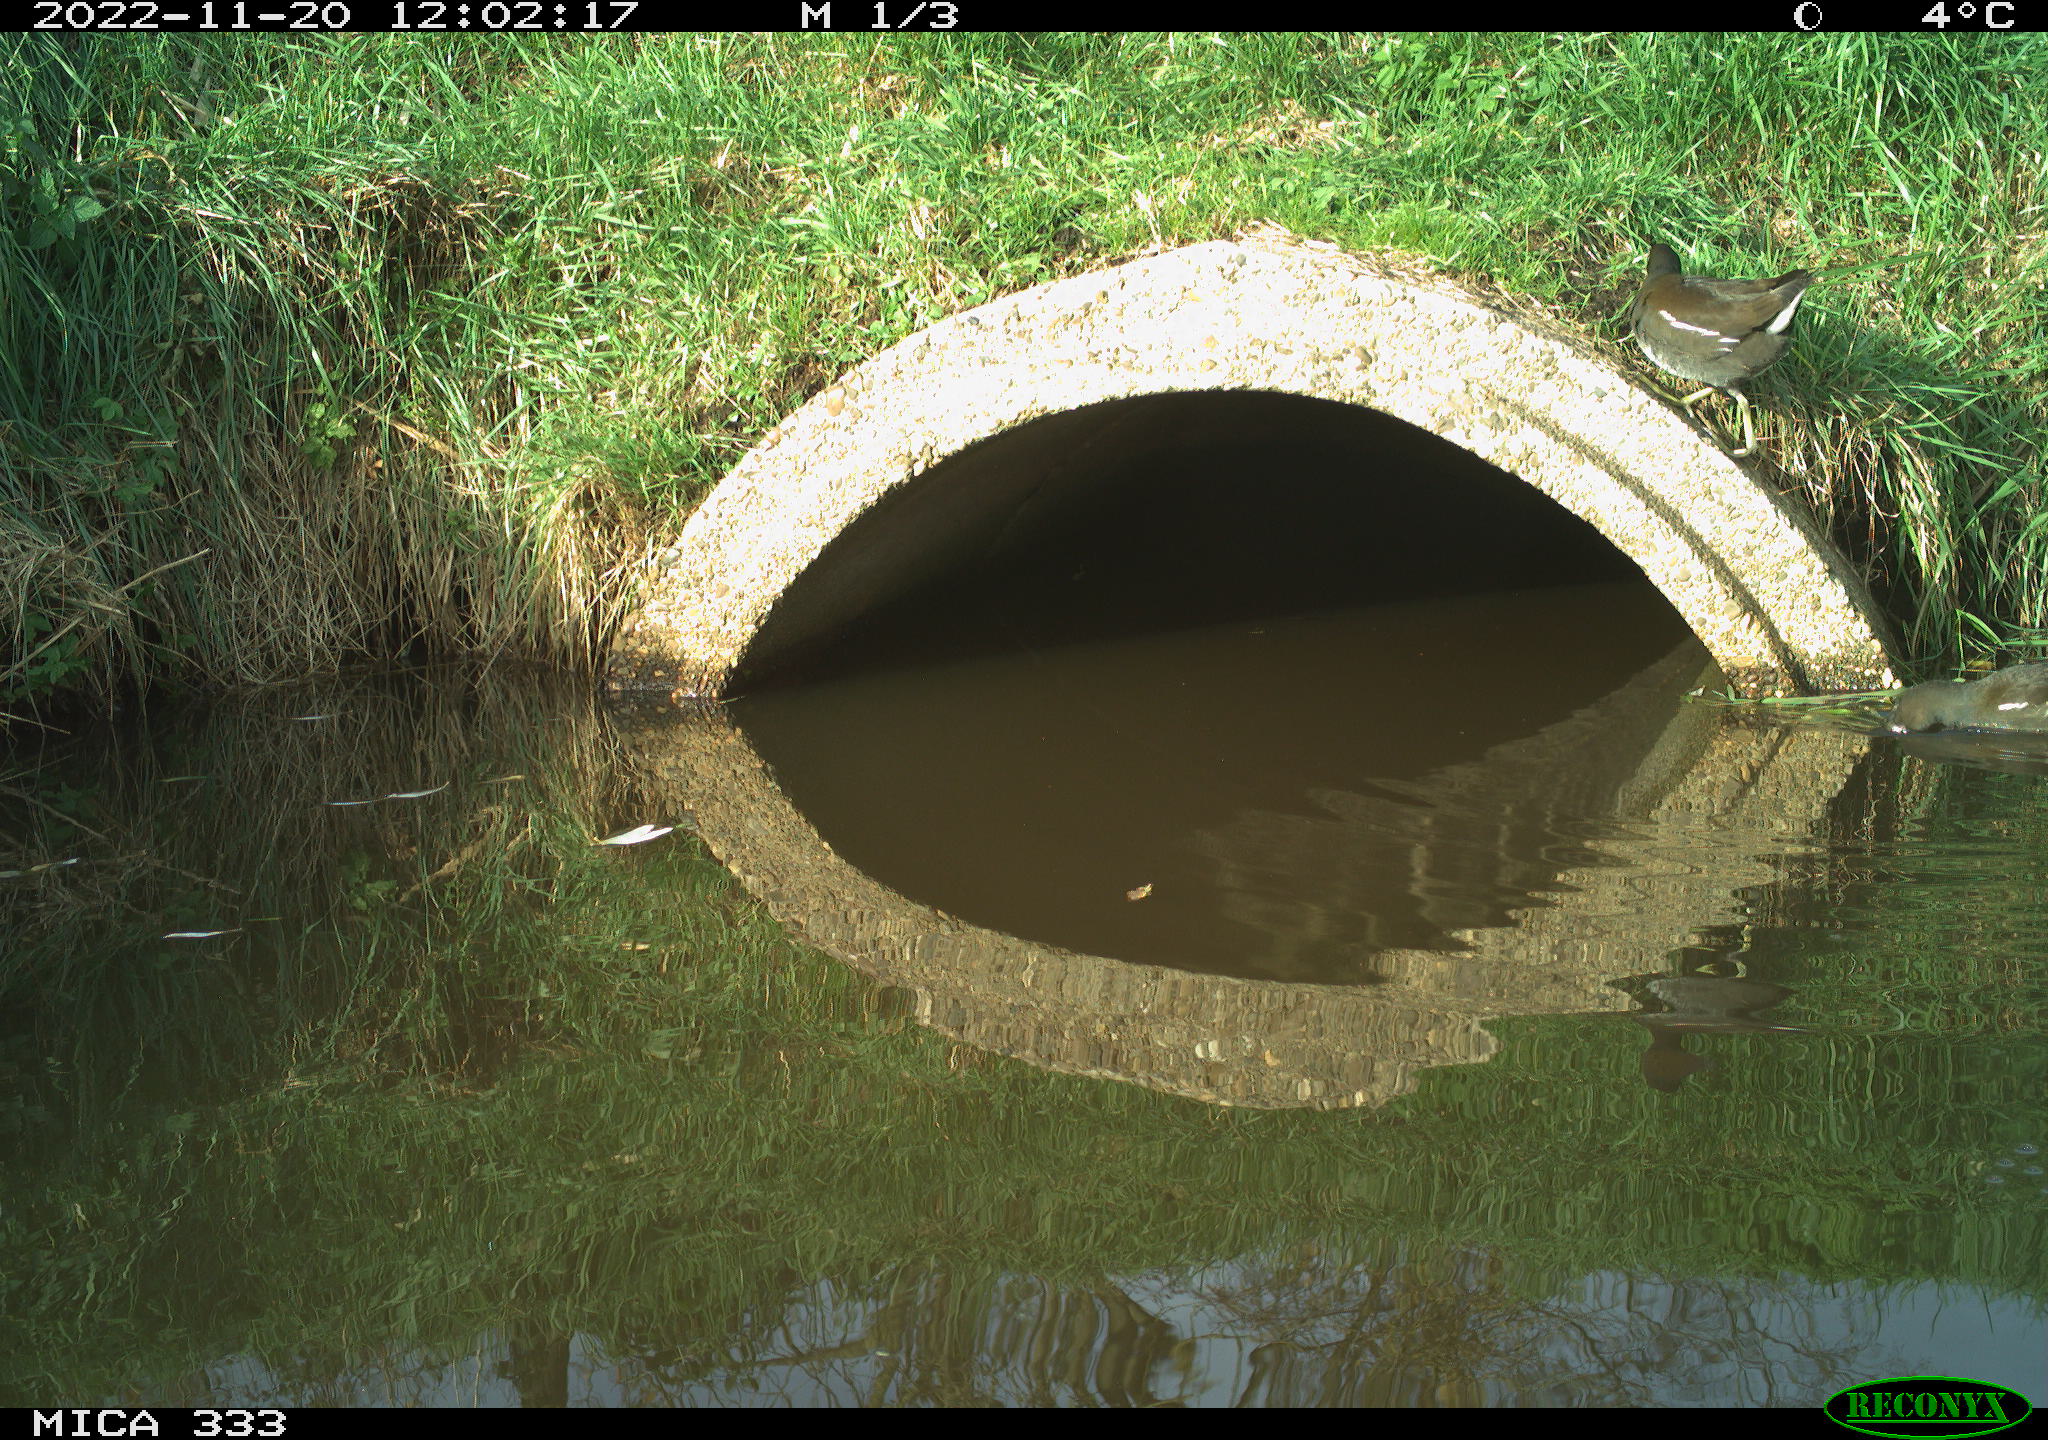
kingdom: Animalia
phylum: Chordata
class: Aves
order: Gruiformes
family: Rallidae
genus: Gallinula
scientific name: Gallinula chloropus
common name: Common moorhen
